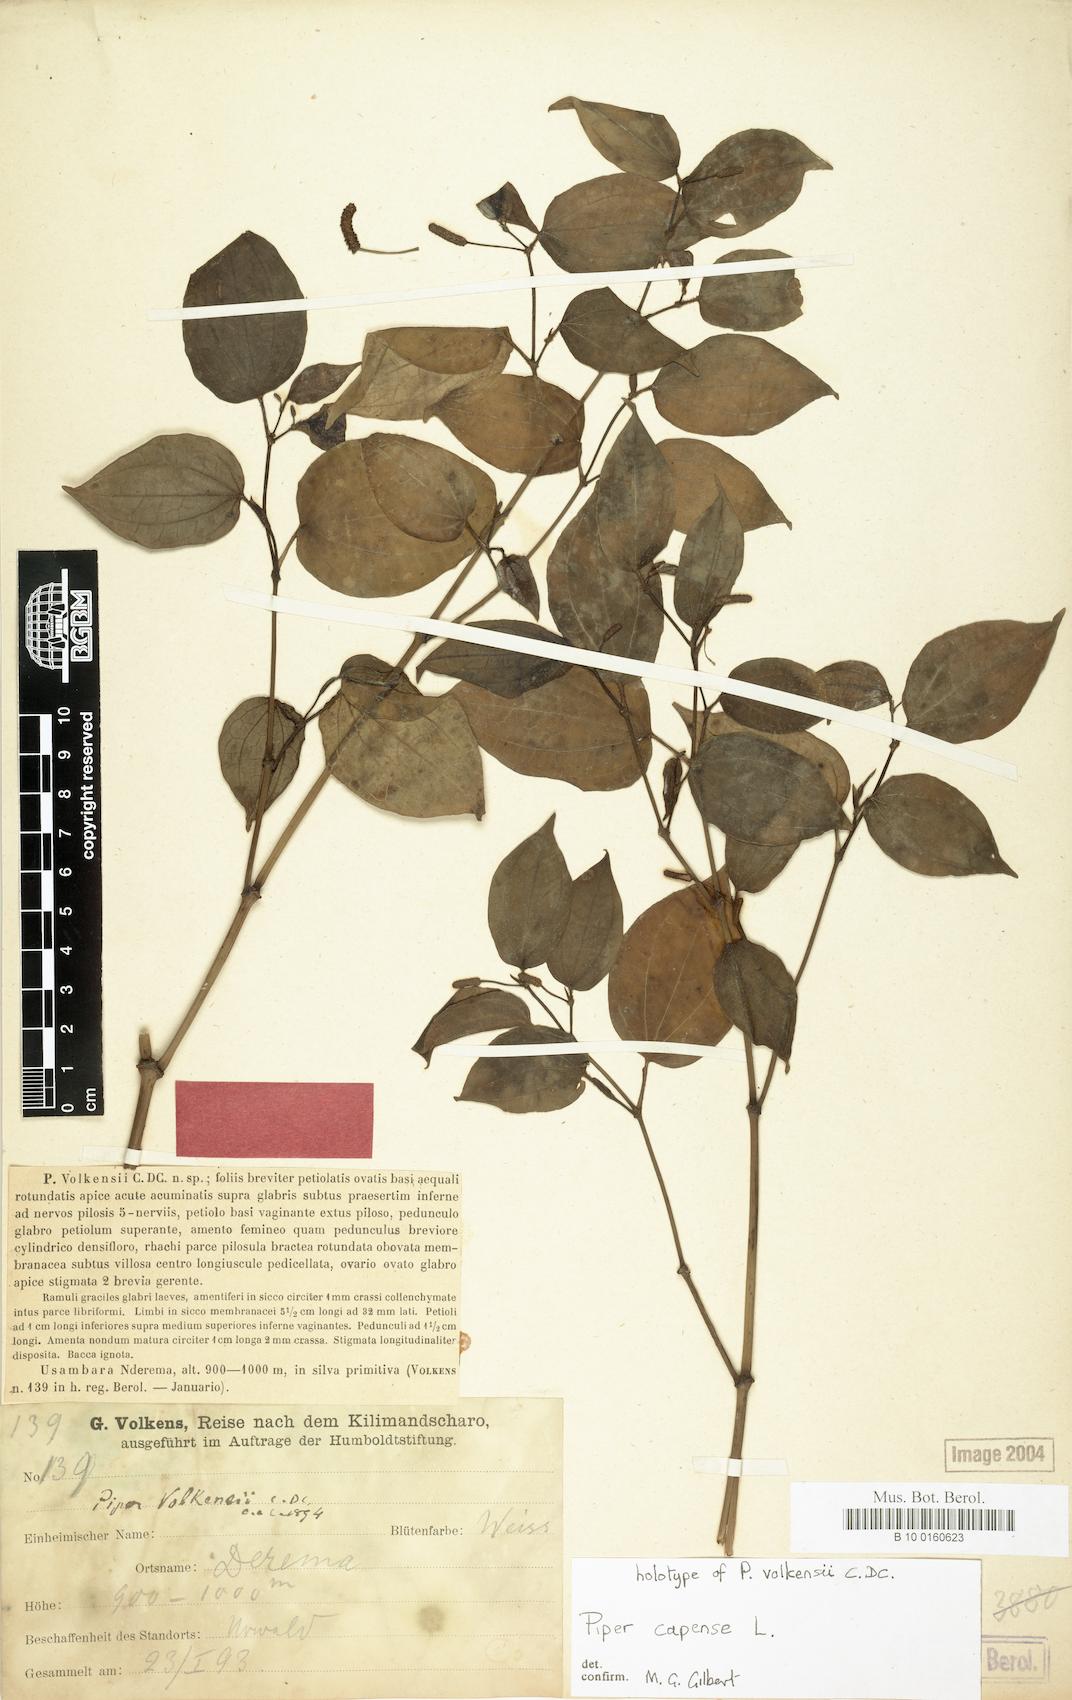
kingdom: Plantae
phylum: Tracheophyta
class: Magnoliopsida
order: Piperales
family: Piperaceae
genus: Piper
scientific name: Piper capense
